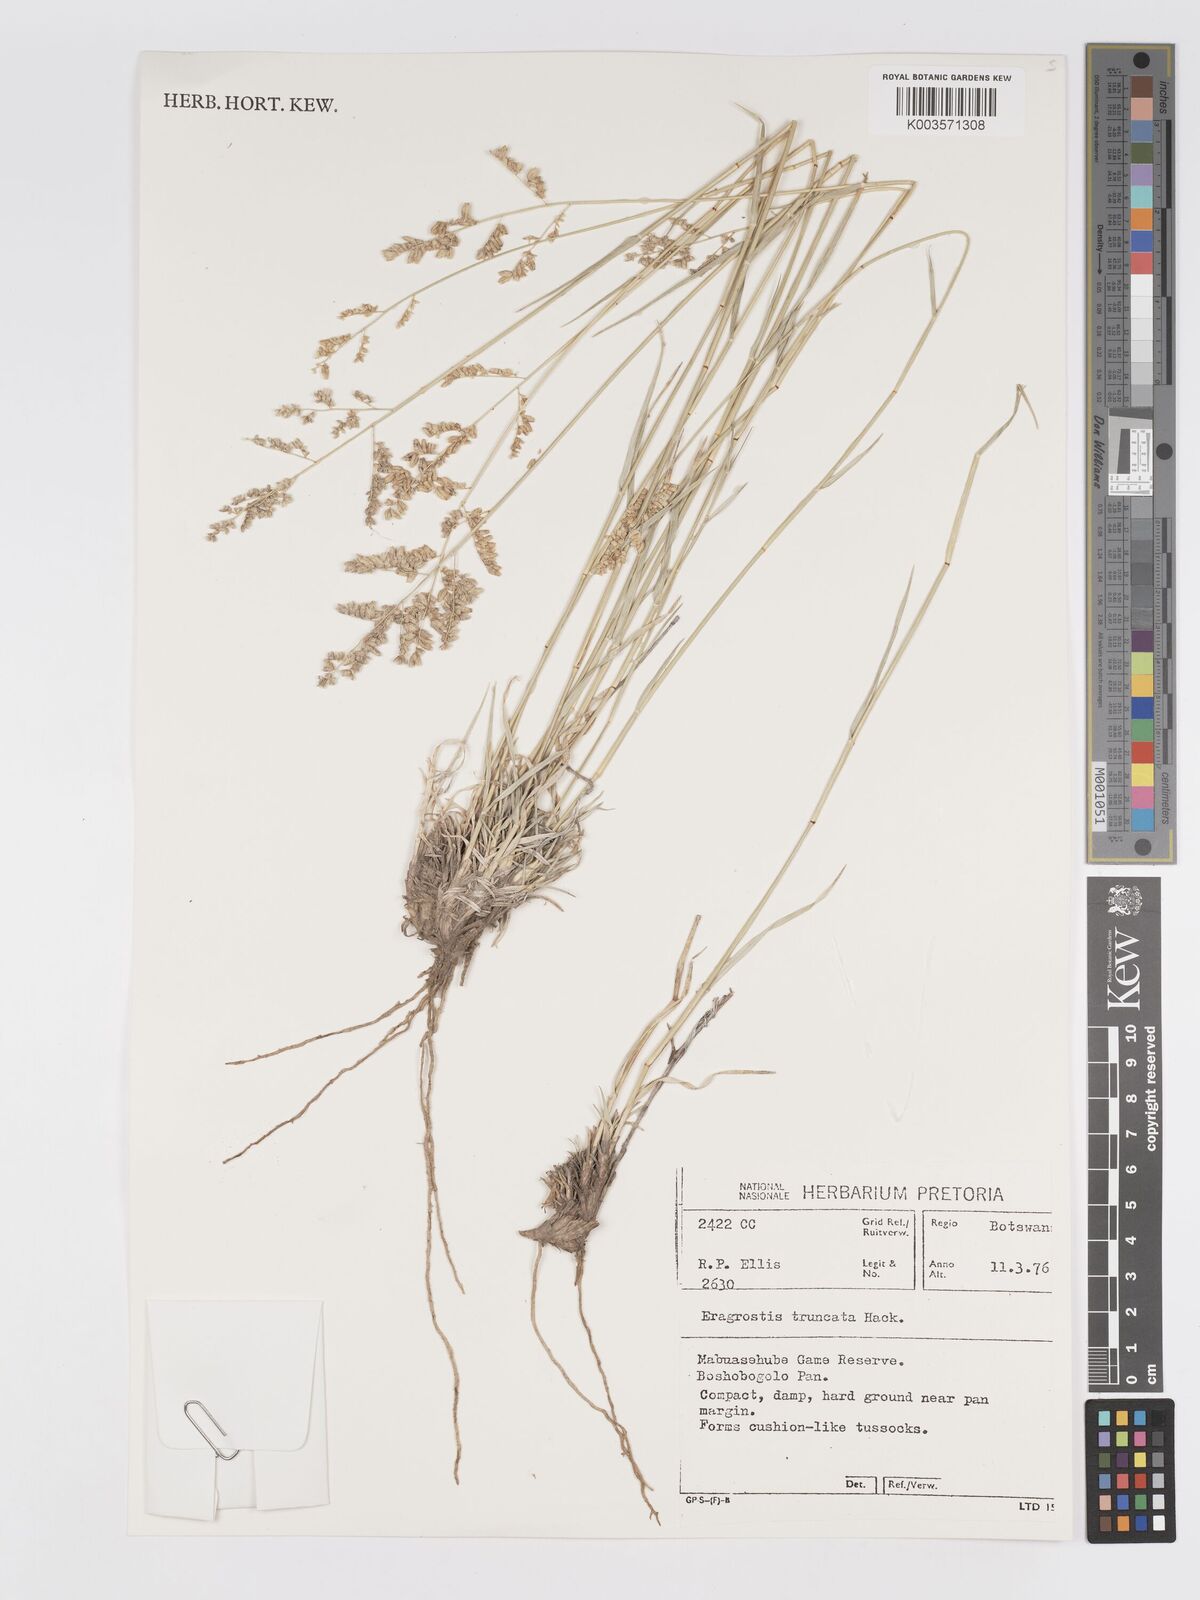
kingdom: Plantae
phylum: Tracheophyta
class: Liliopsida
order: Poales
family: Poaceae
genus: Eragrostis
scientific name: Eragrostis truncata
